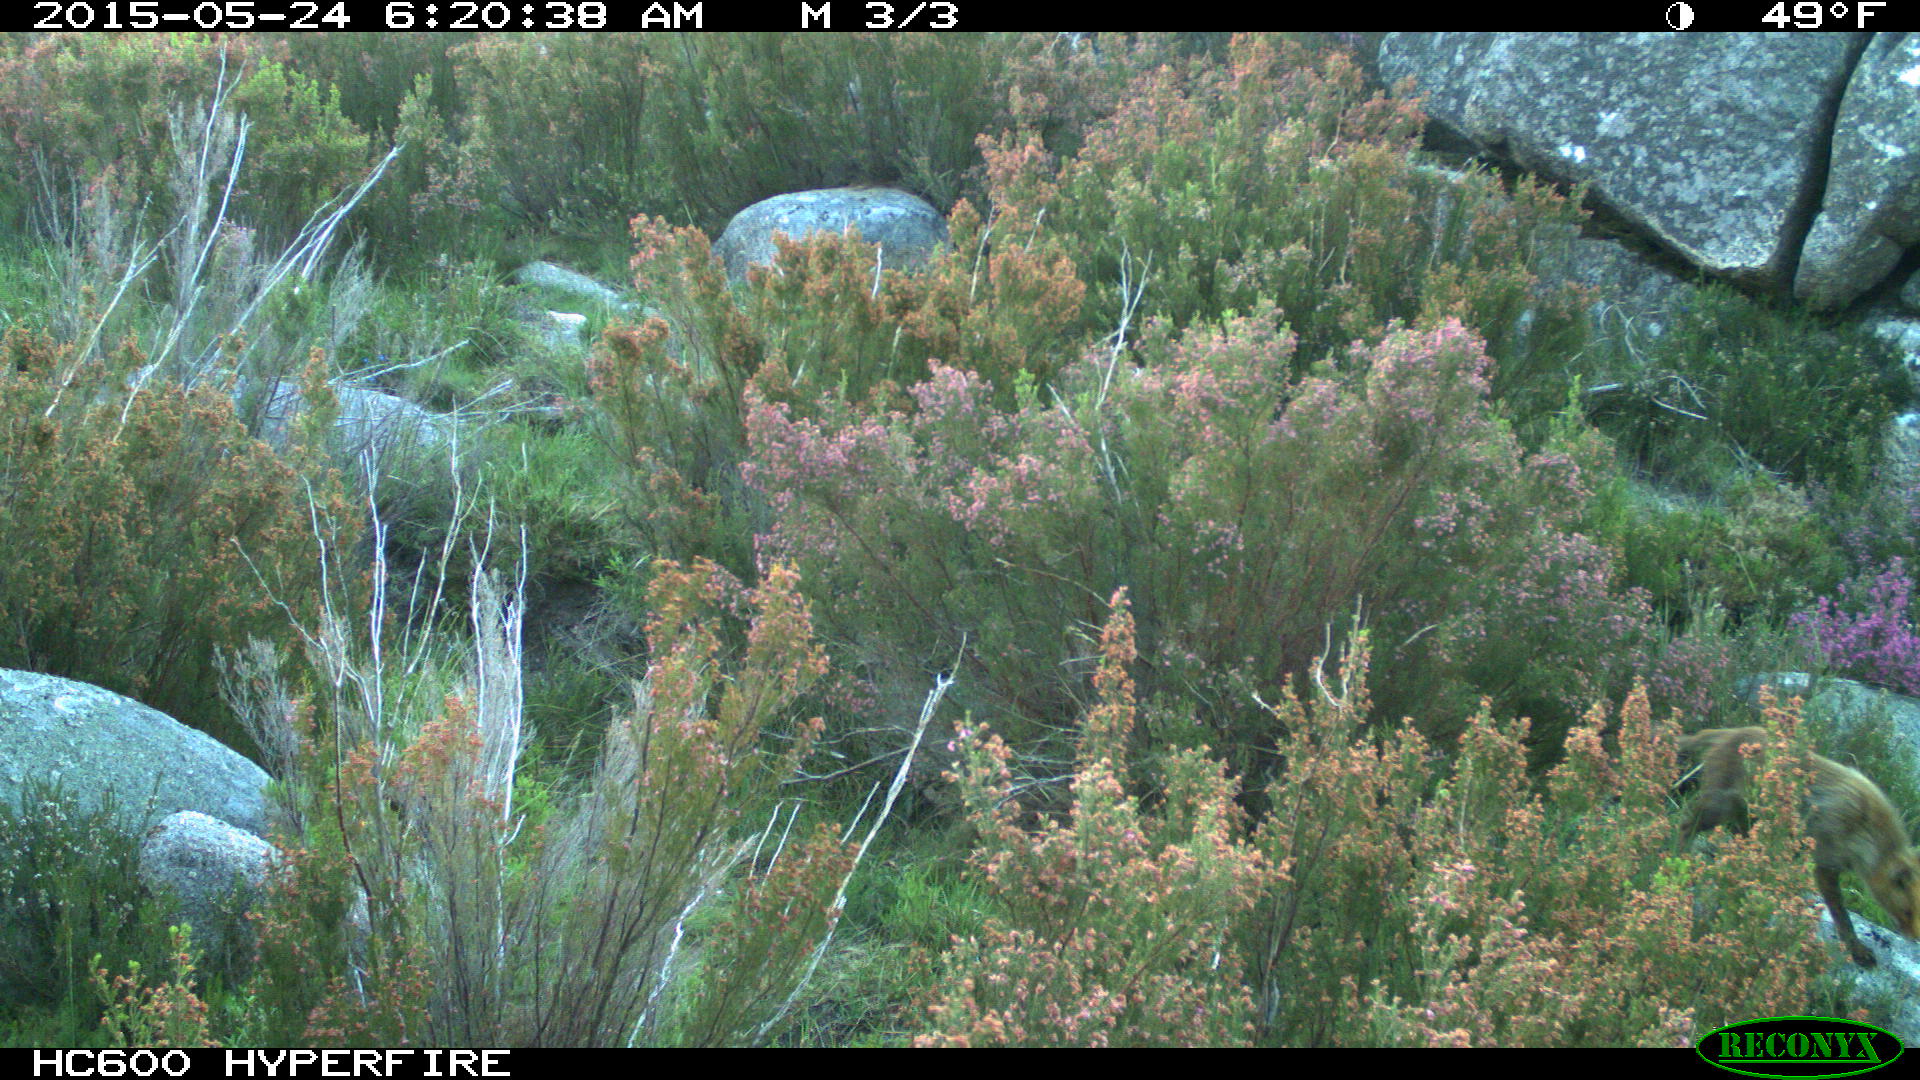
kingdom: Animalia
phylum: Chordata
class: Mammalia
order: Carnivora
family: Canidae
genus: Vulpes
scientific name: Vulpes vulpes
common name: Red fox
